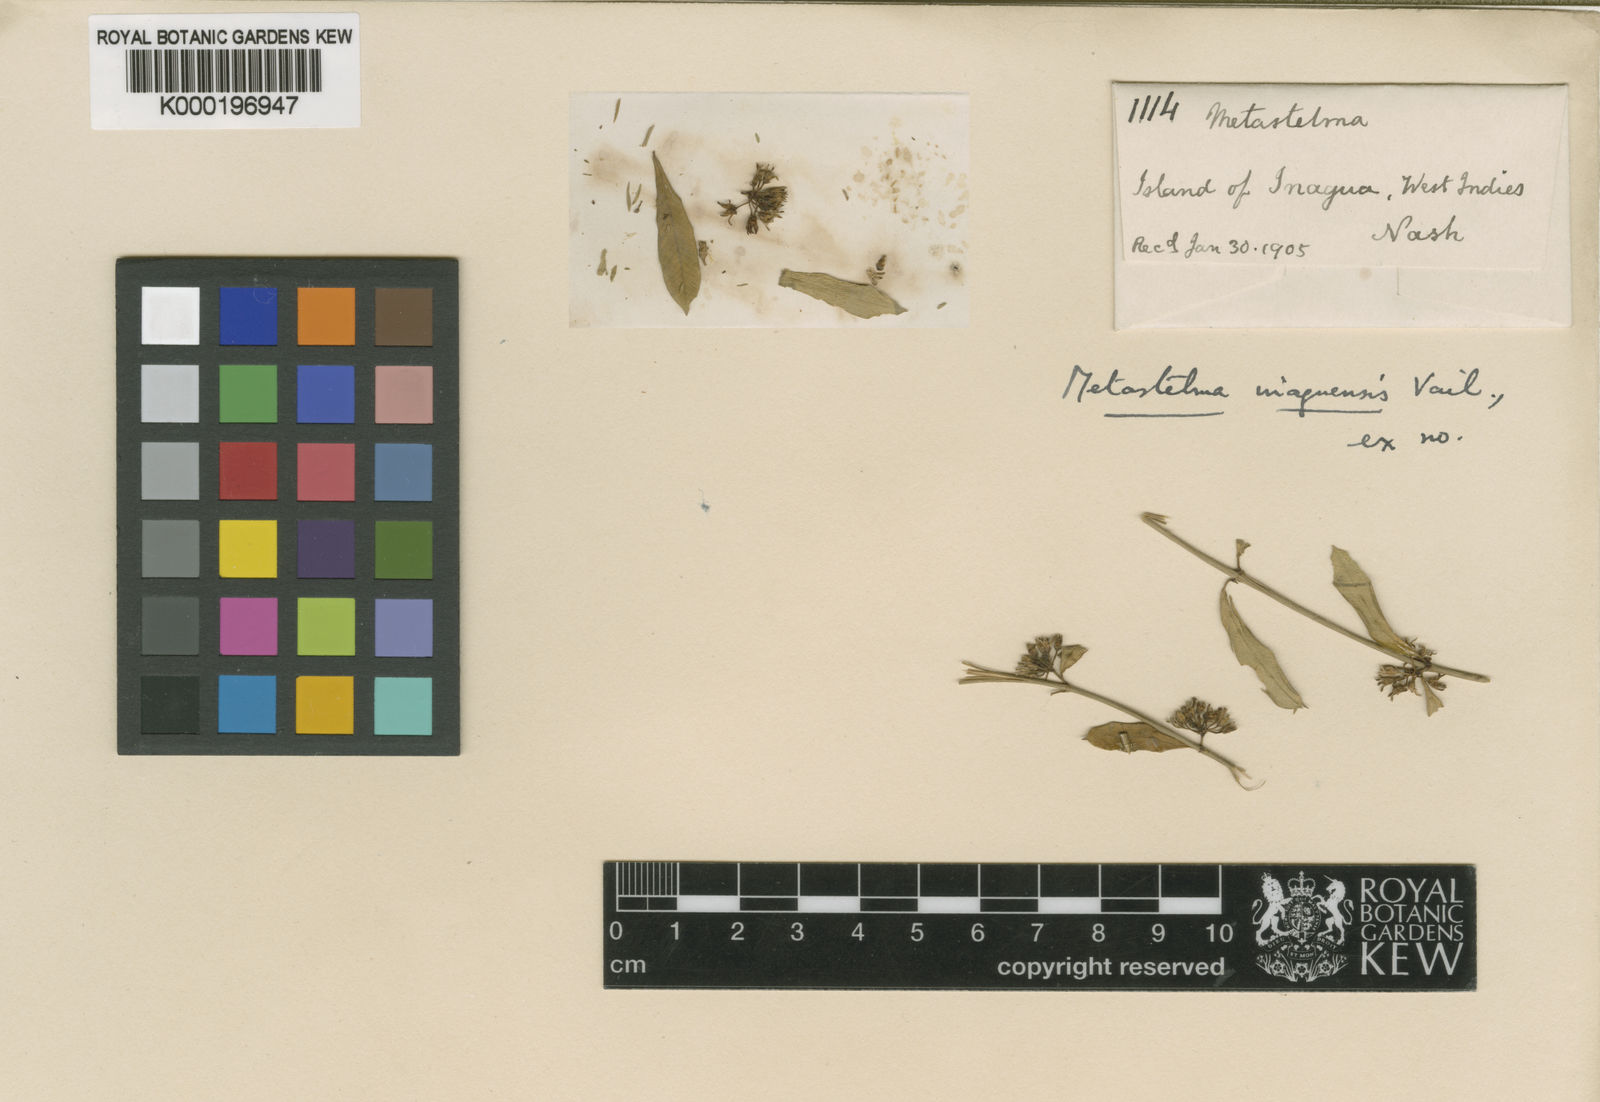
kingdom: Plantae
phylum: Tracheophyta
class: Magnoliopsida
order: Gentianales
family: Apocynaceae
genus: Metastelma
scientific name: Metastelma
